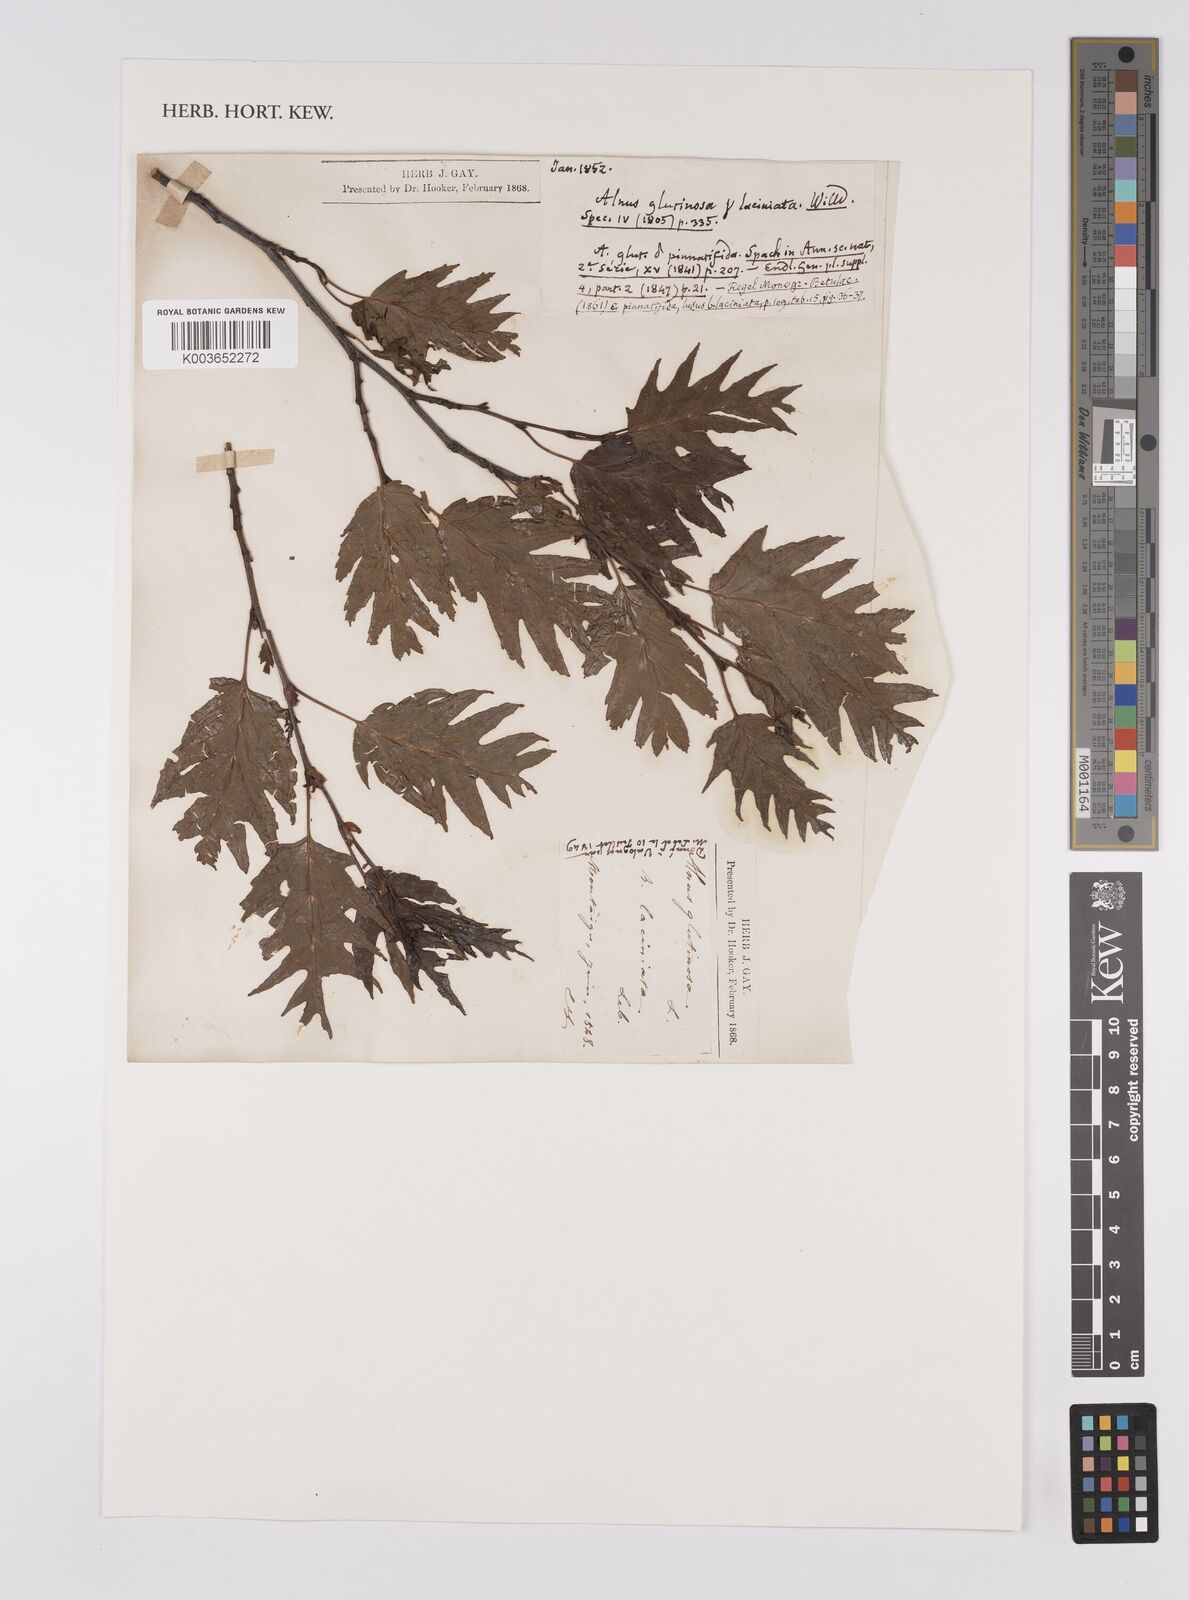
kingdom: Plantae
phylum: Tracheophyta
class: Magnoliopsida
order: Fagales
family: Betulaceae
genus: Alnus
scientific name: Alnus glutinosa
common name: Black alder
